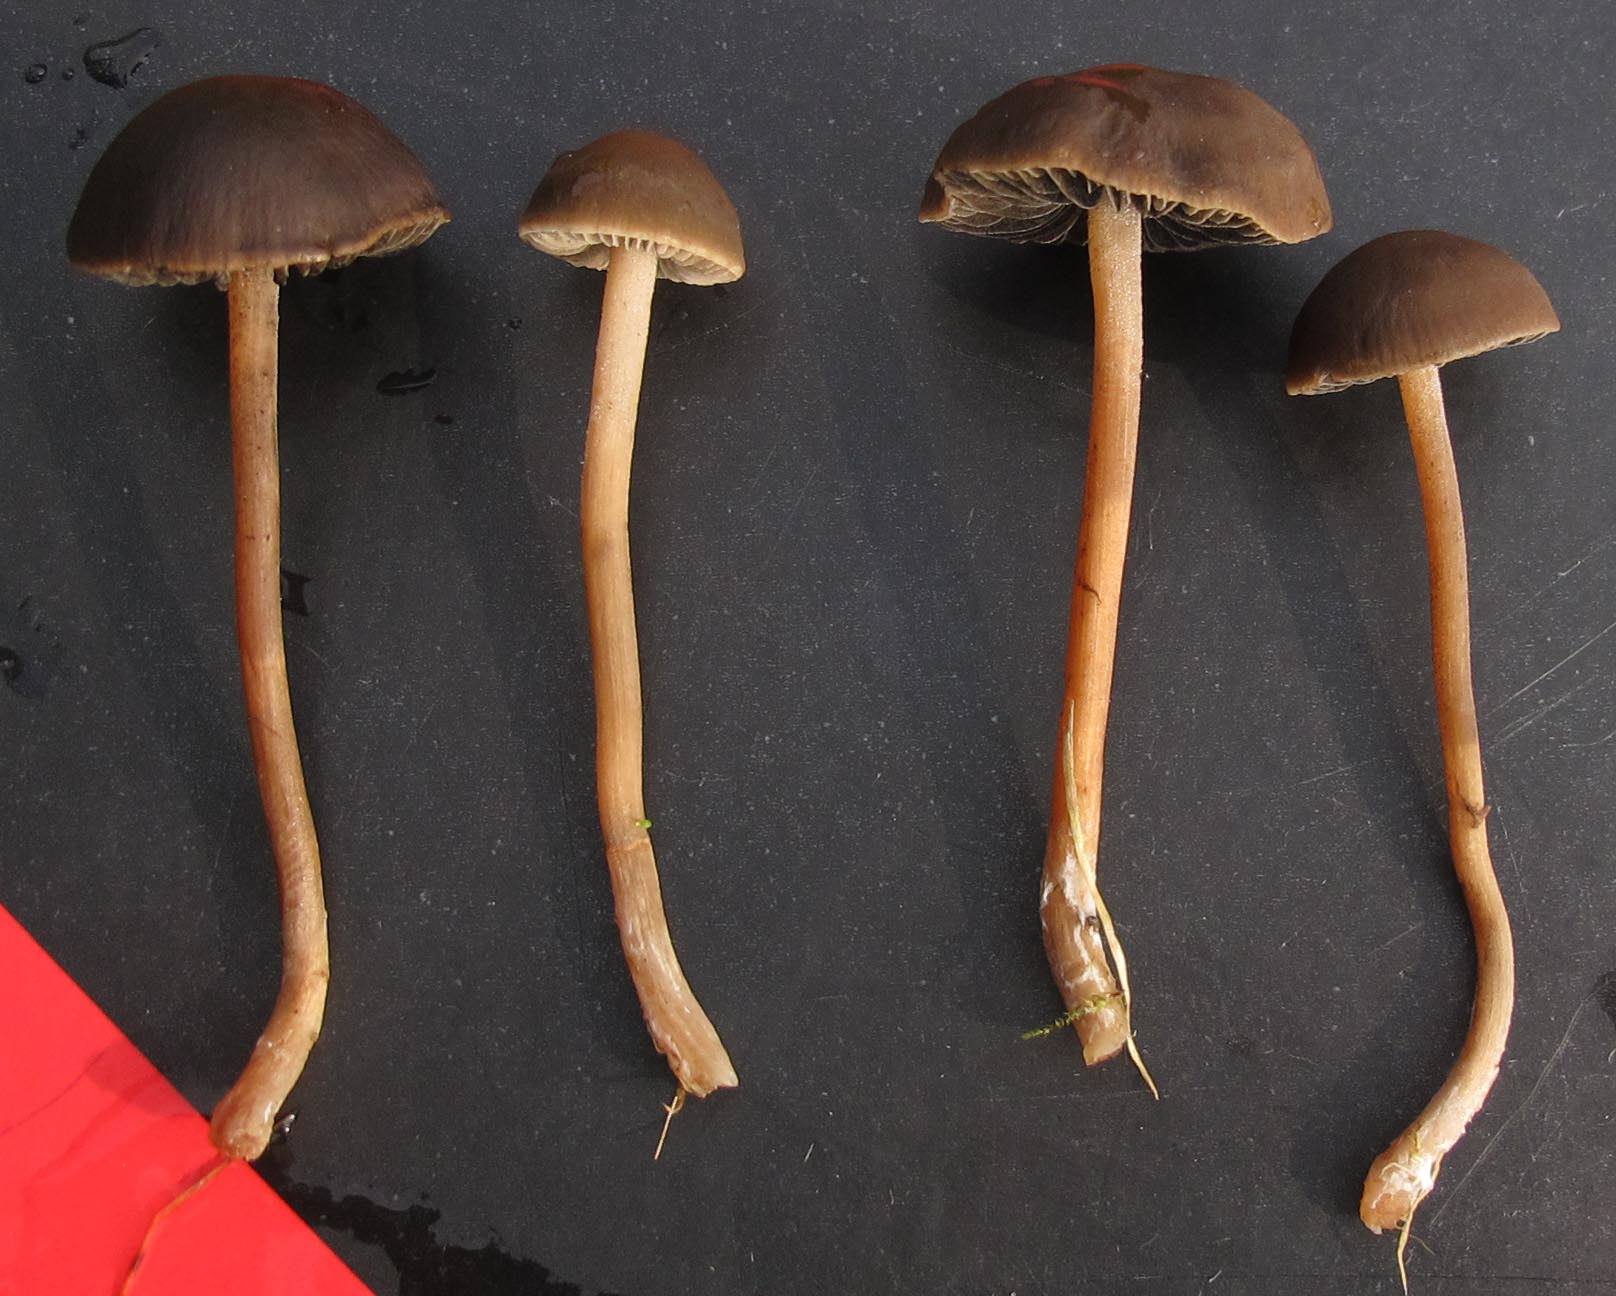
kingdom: Fungi
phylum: Basidiomycota
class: Agaricomycetes
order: Agaricales
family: Bolbitiaceae
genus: Panaeolus
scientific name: Panaeolus fimicola
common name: tidlig glanshat
